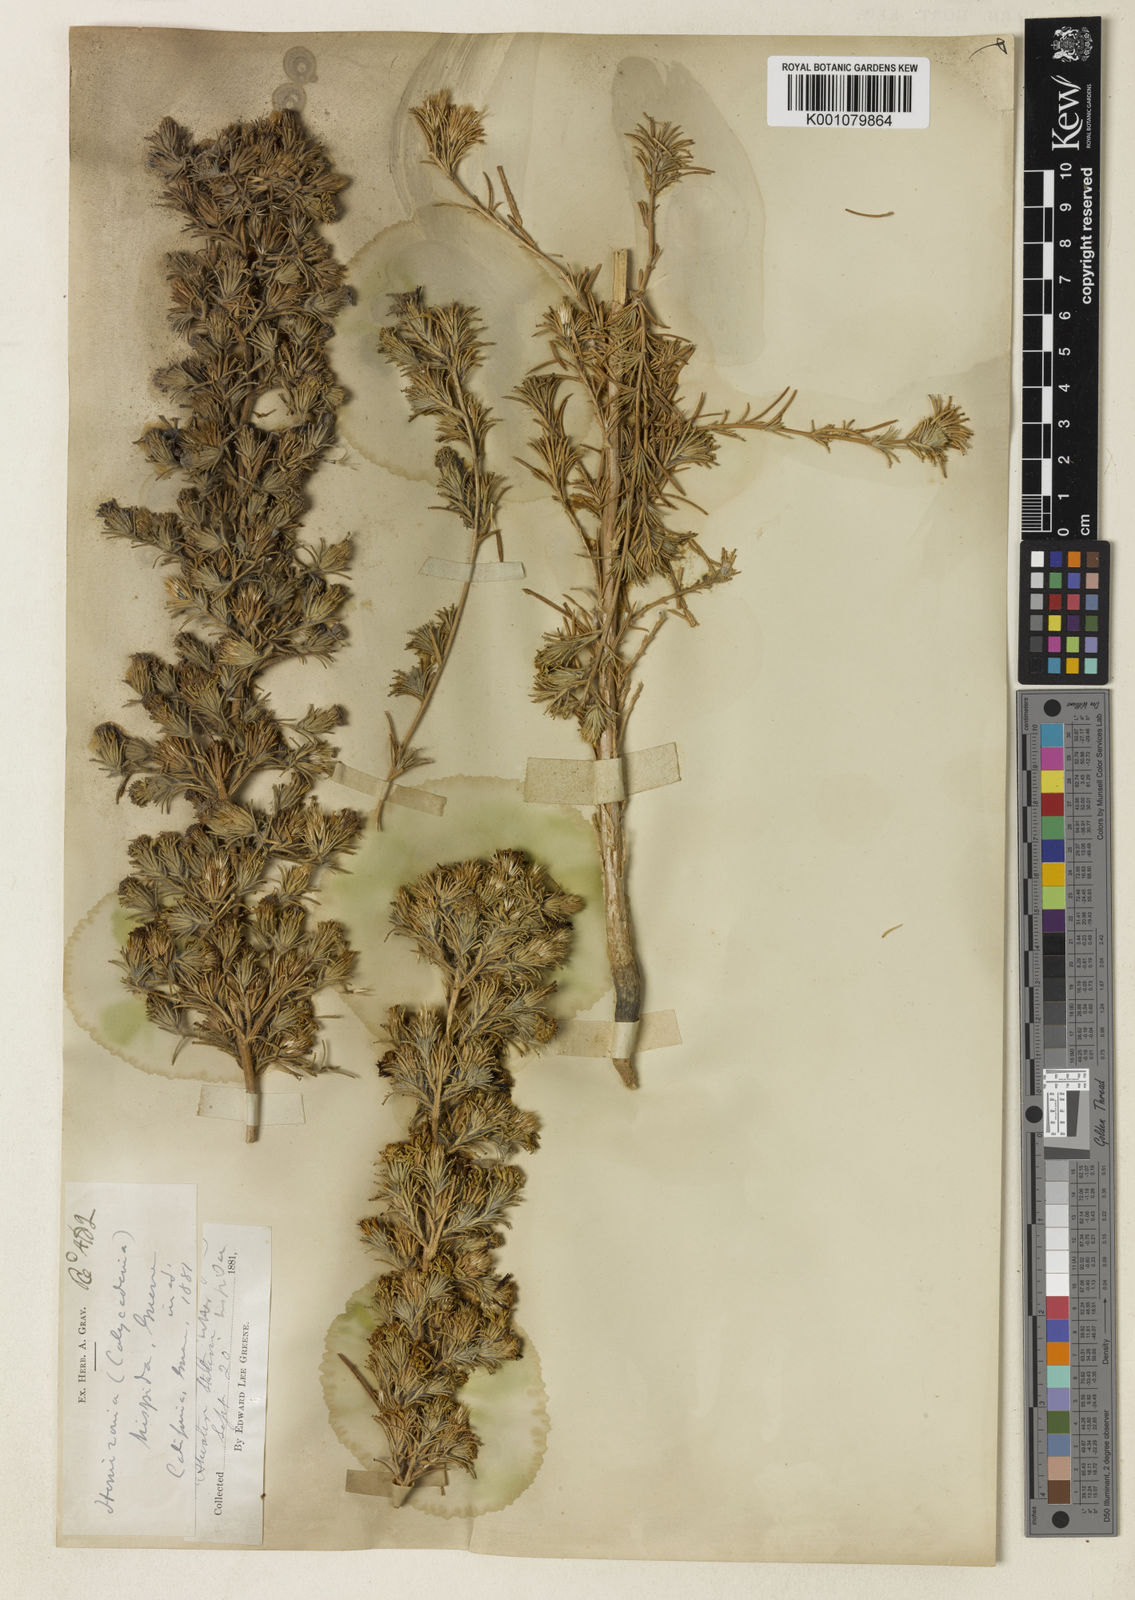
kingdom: Plantae
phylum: Tracheophyta
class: Magnoliopsida
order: Asterales
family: Asteraceae
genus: Calycadenia
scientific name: Calycadenia villosa
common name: Dwarf calycadenia
